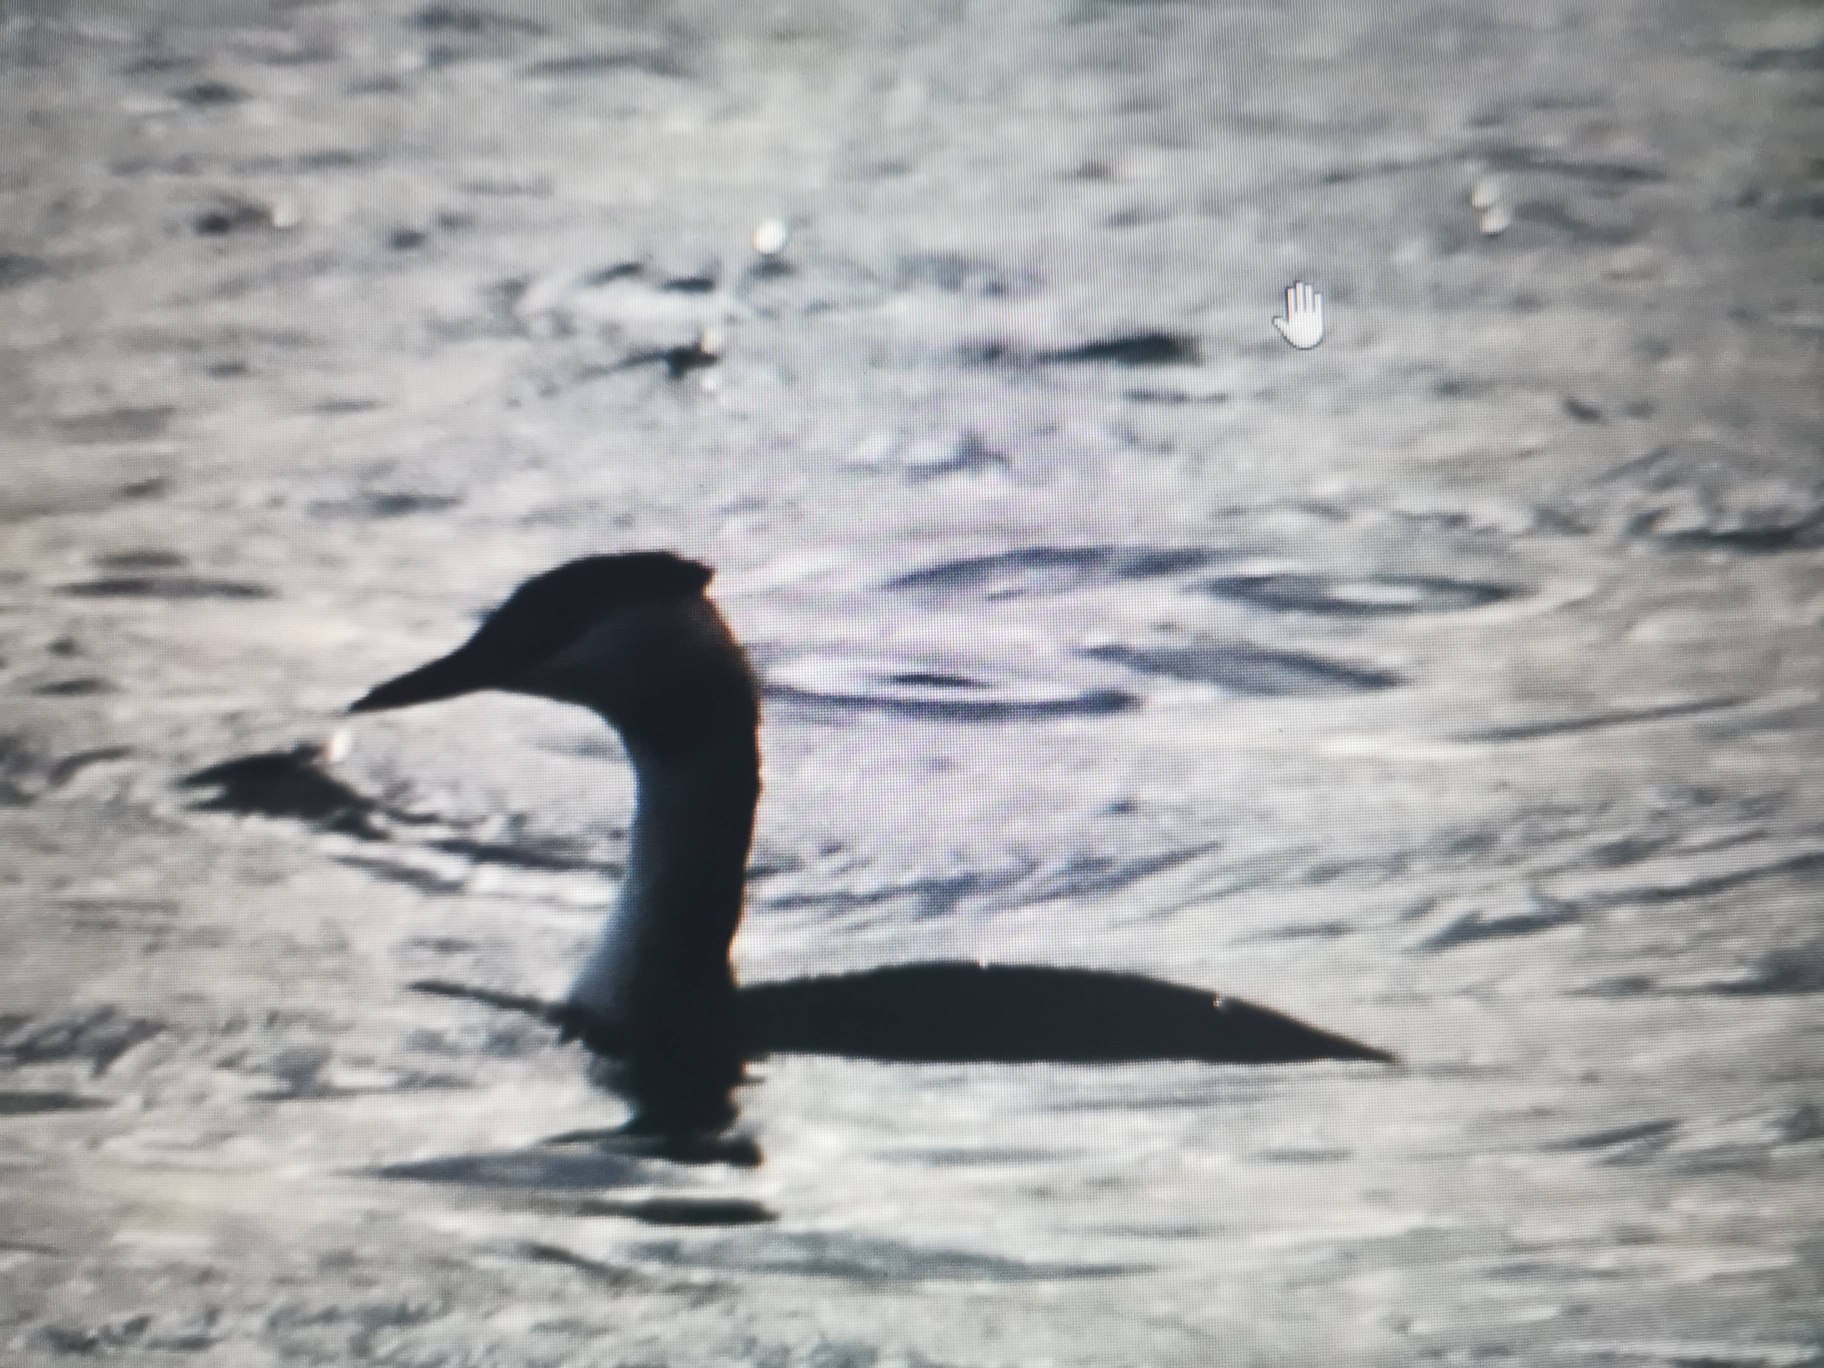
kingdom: Animalia
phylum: Chordata
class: Aves
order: Podicipediformes
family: Podicipedidae
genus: Podiceps
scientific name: Podiceps cristatus
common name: Toppet lappedykker
